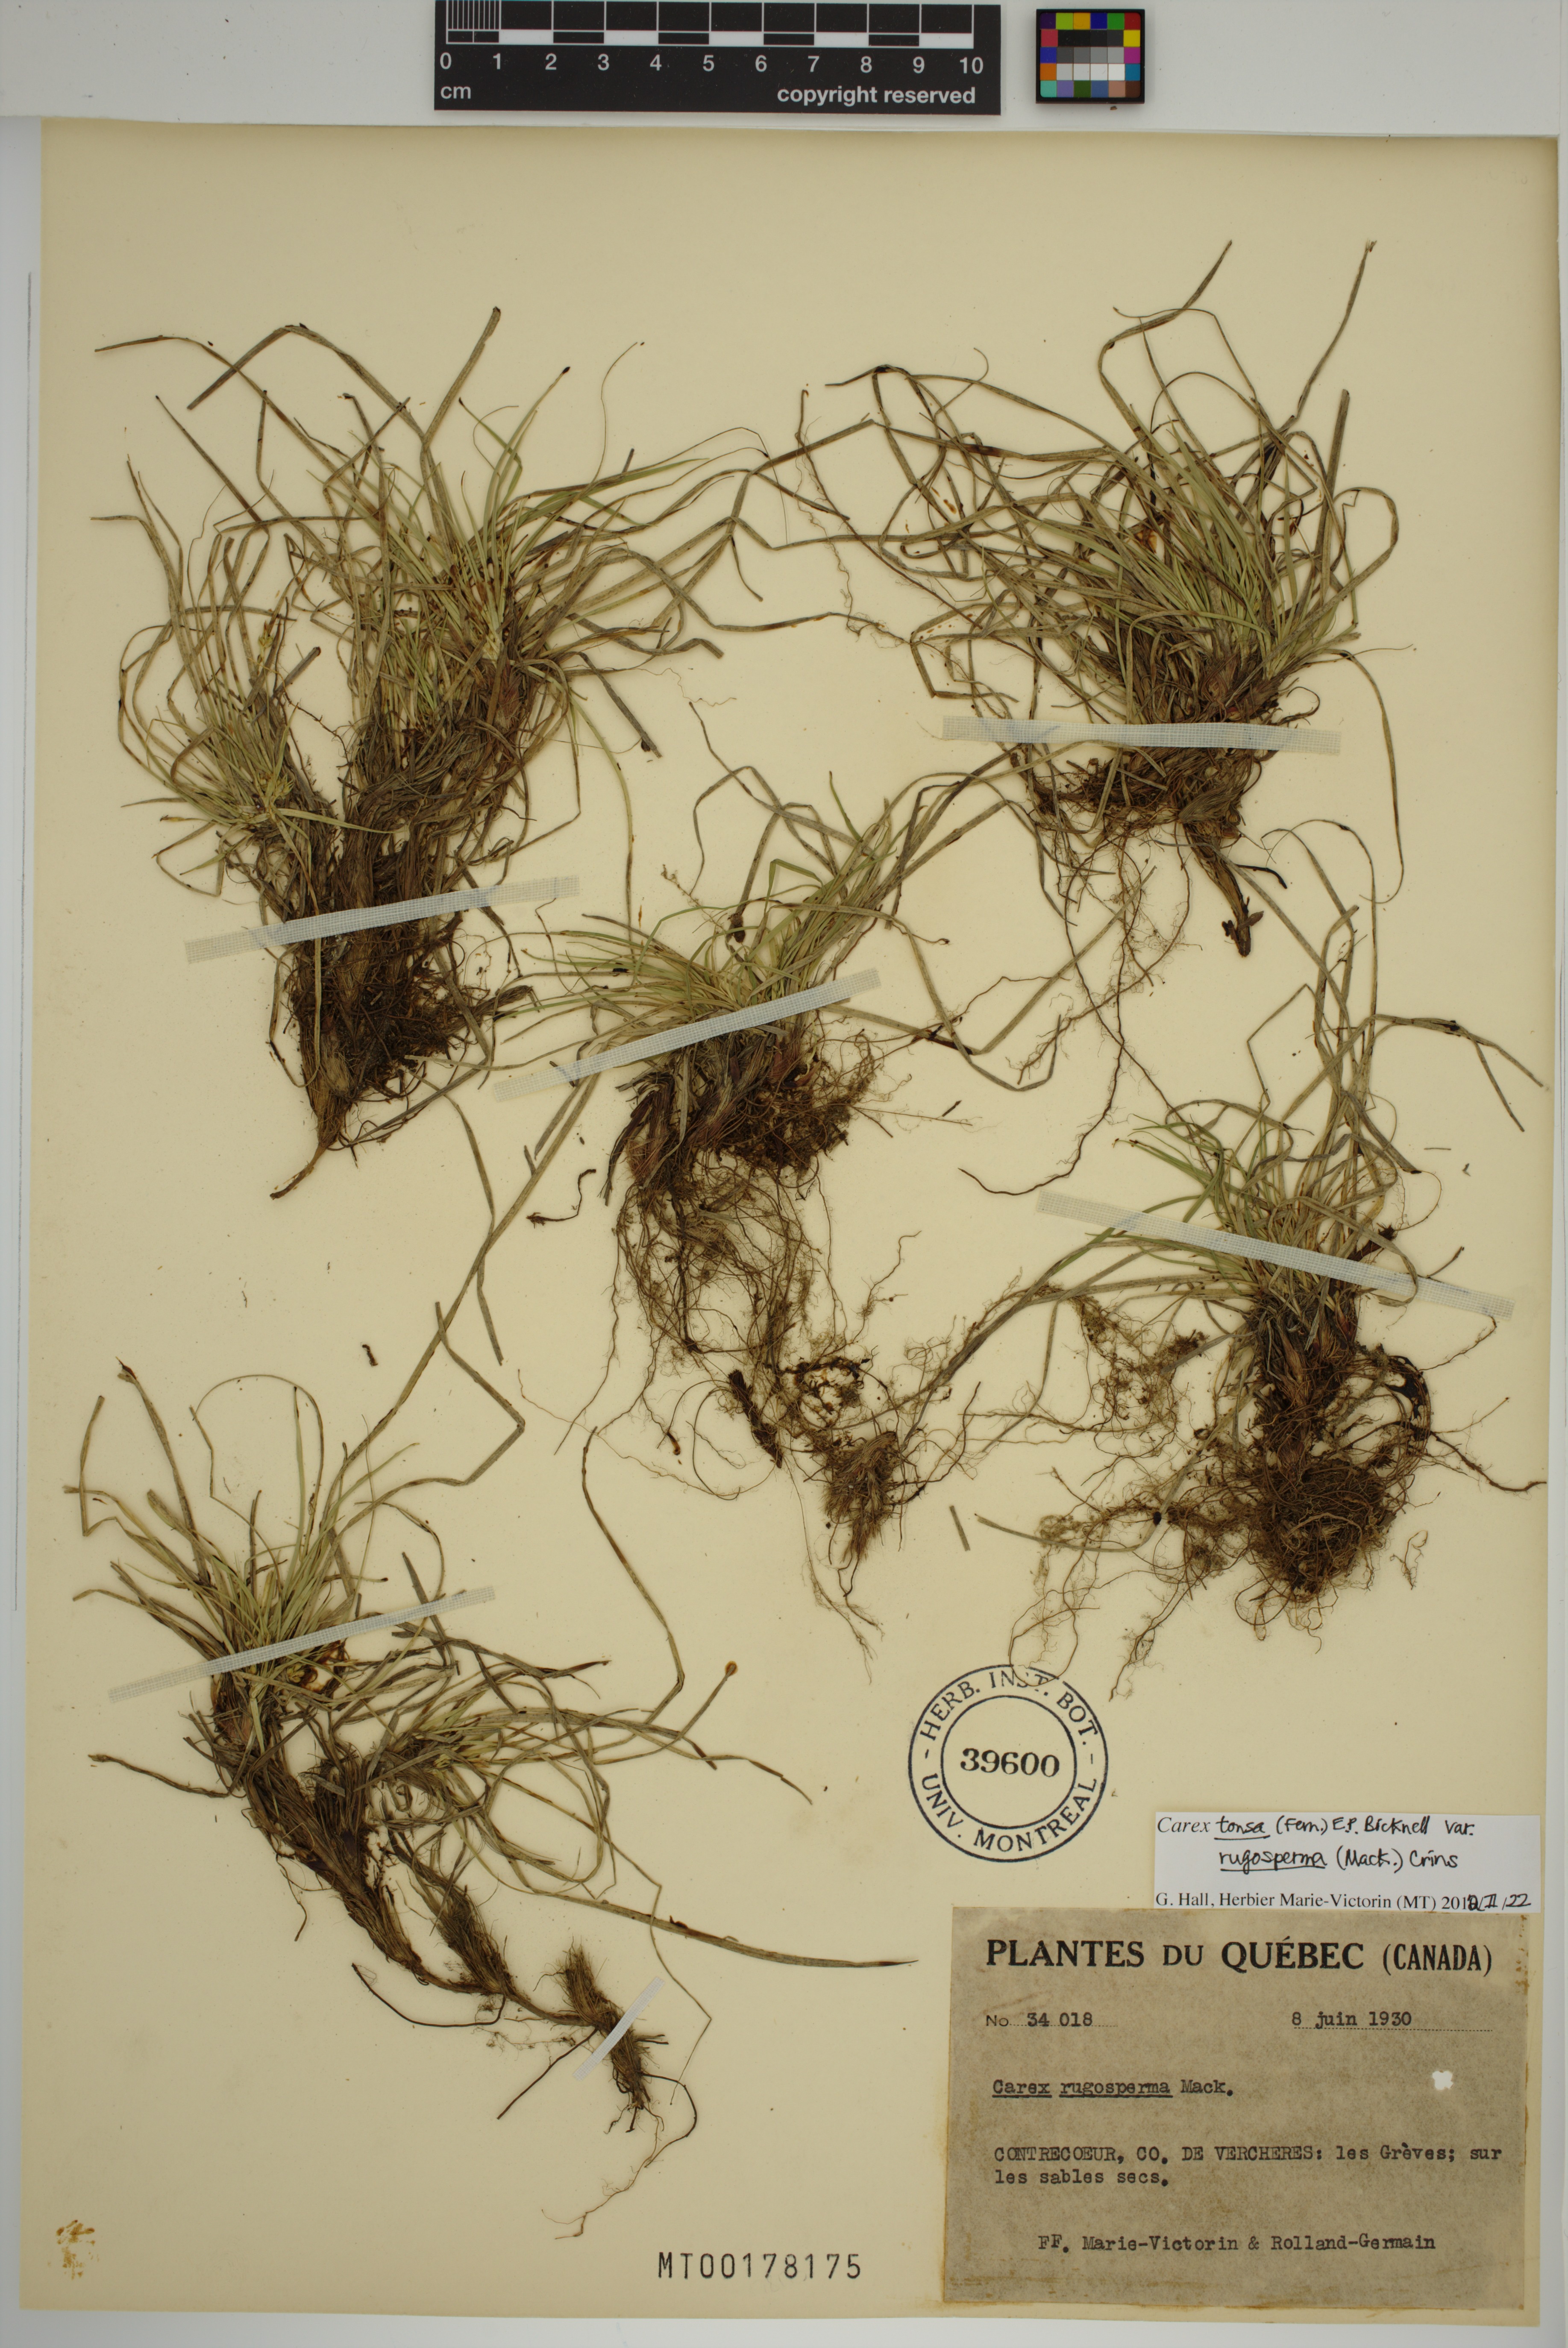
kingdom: Plantae
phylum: Tracheophyta
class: Liliopsida
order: Poales
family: Cyperaceae
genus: Carex
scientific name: Carex tonsa
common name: Bald sedge
